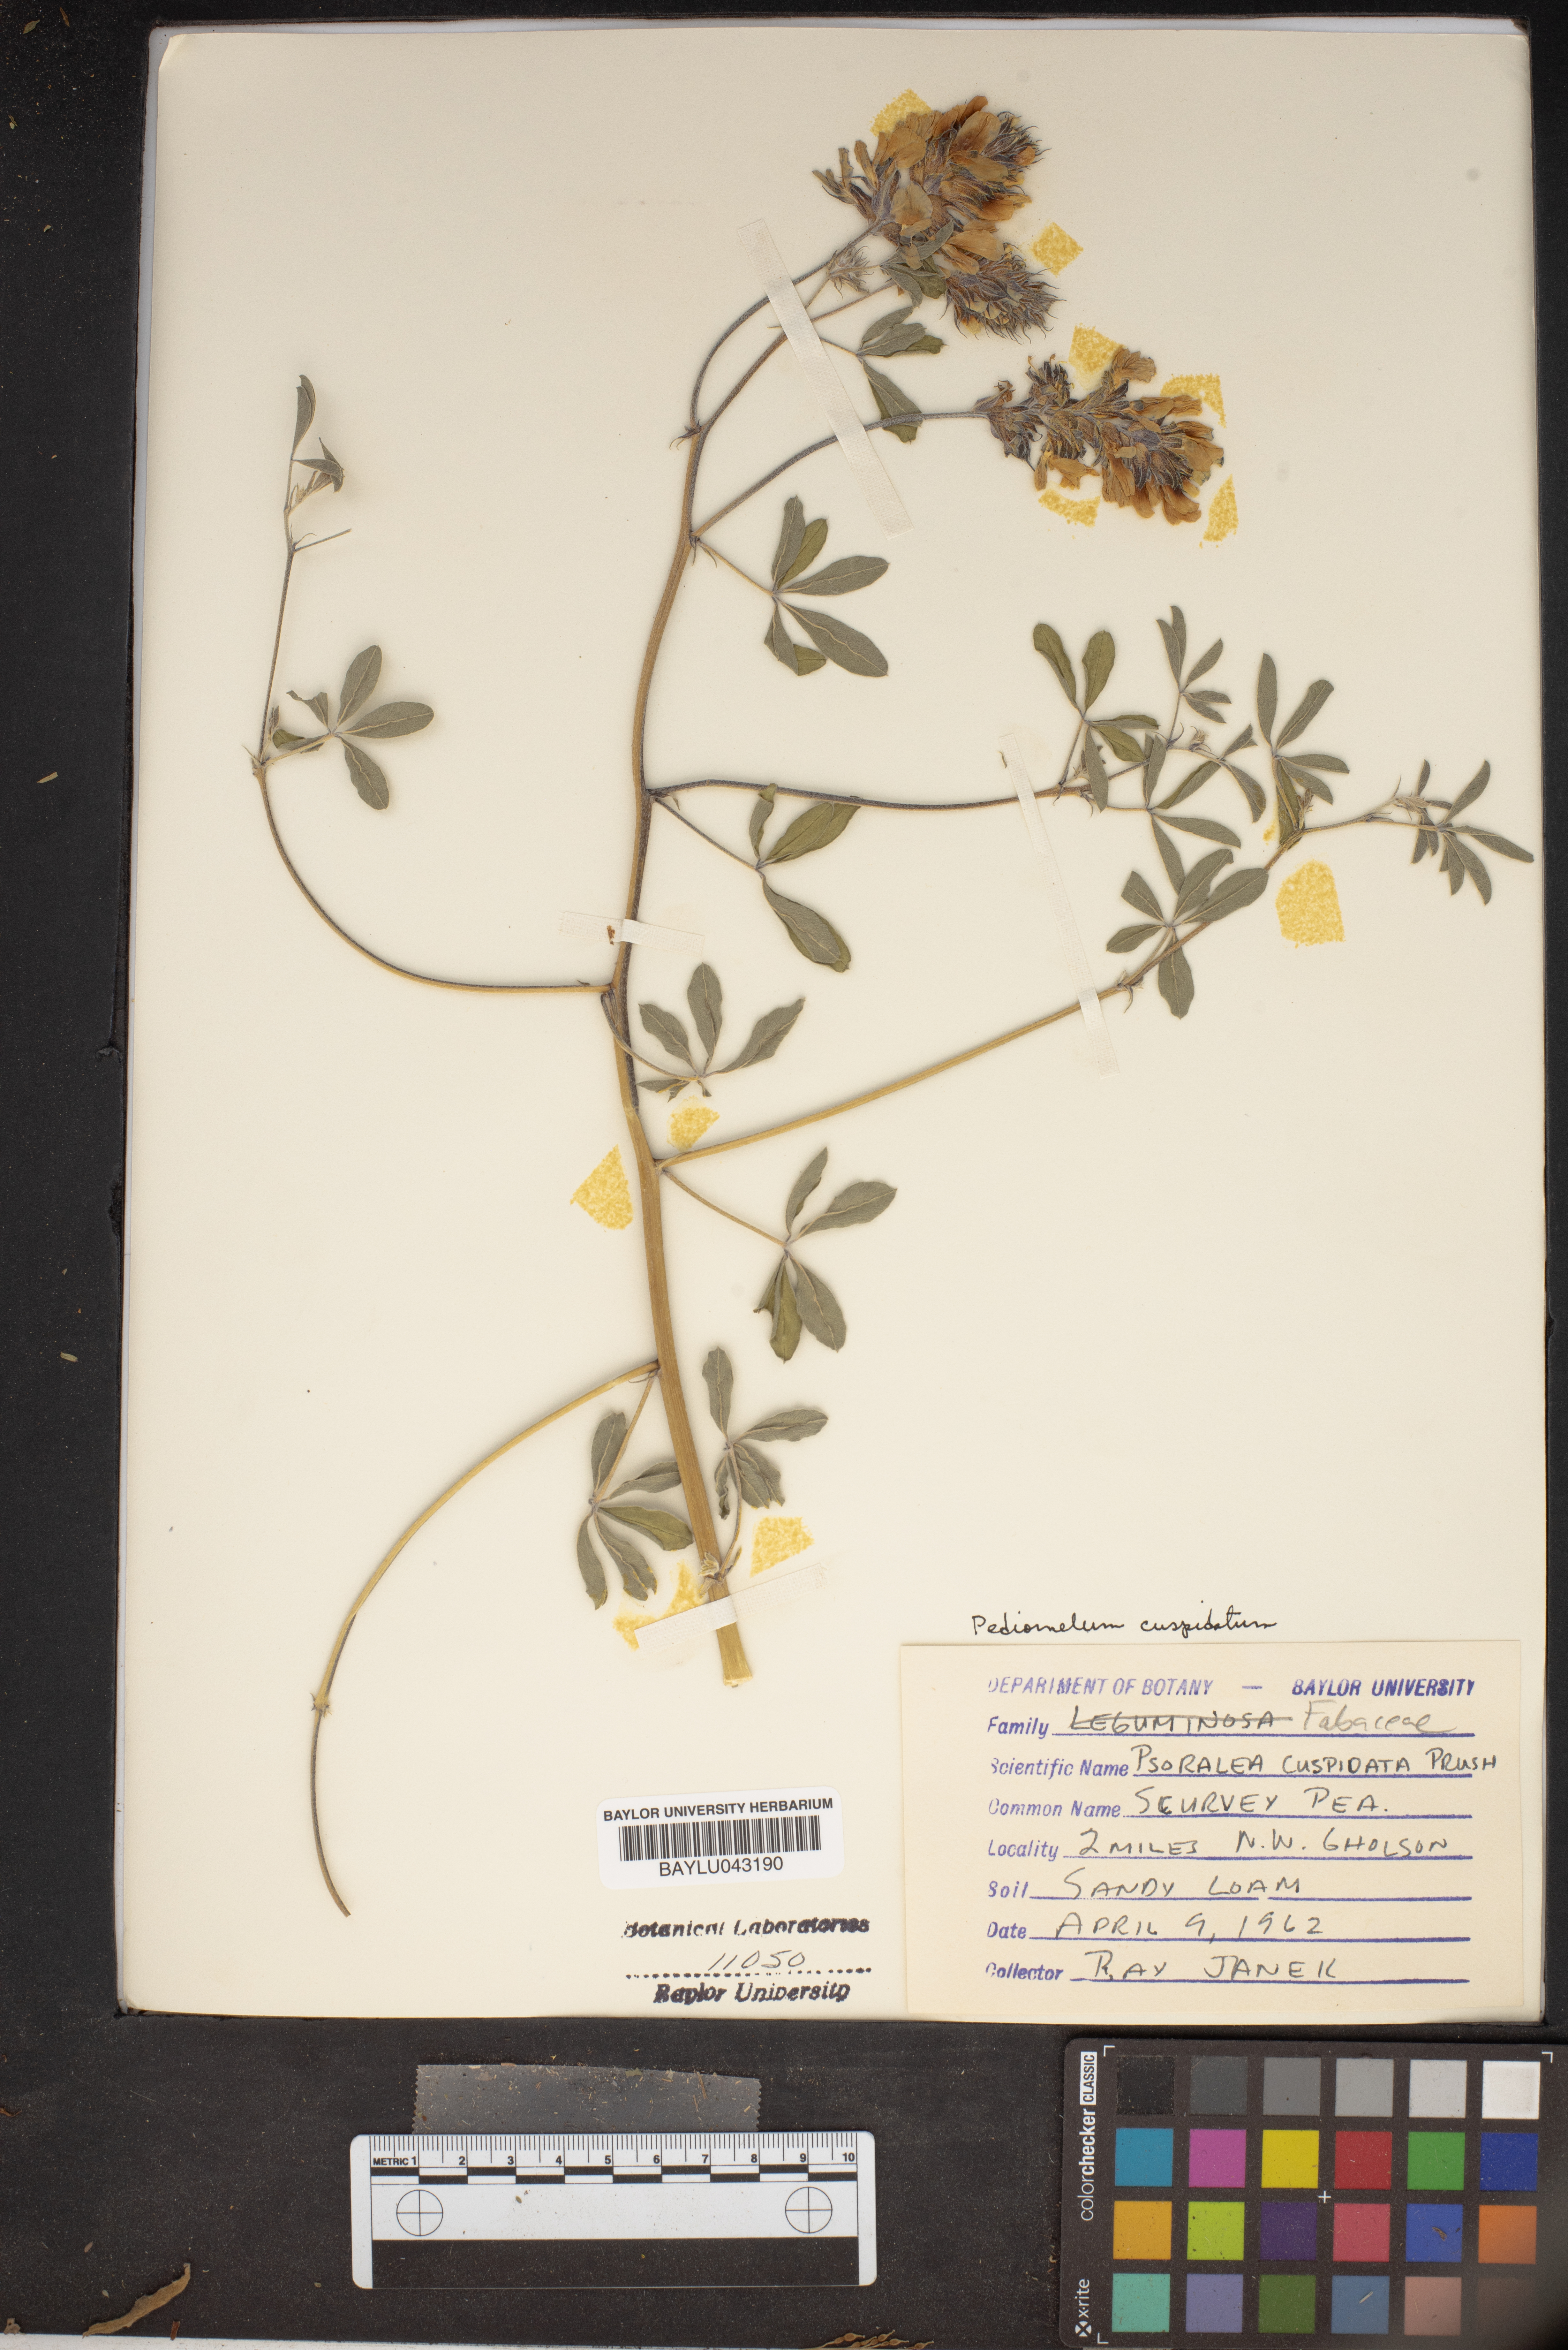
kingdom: Plantae
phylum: Tracheophyta
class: Magnoliopsida
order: Fabales
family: Fabaceae
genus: Pediomelum
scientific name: Pediomelum cuspidatum
